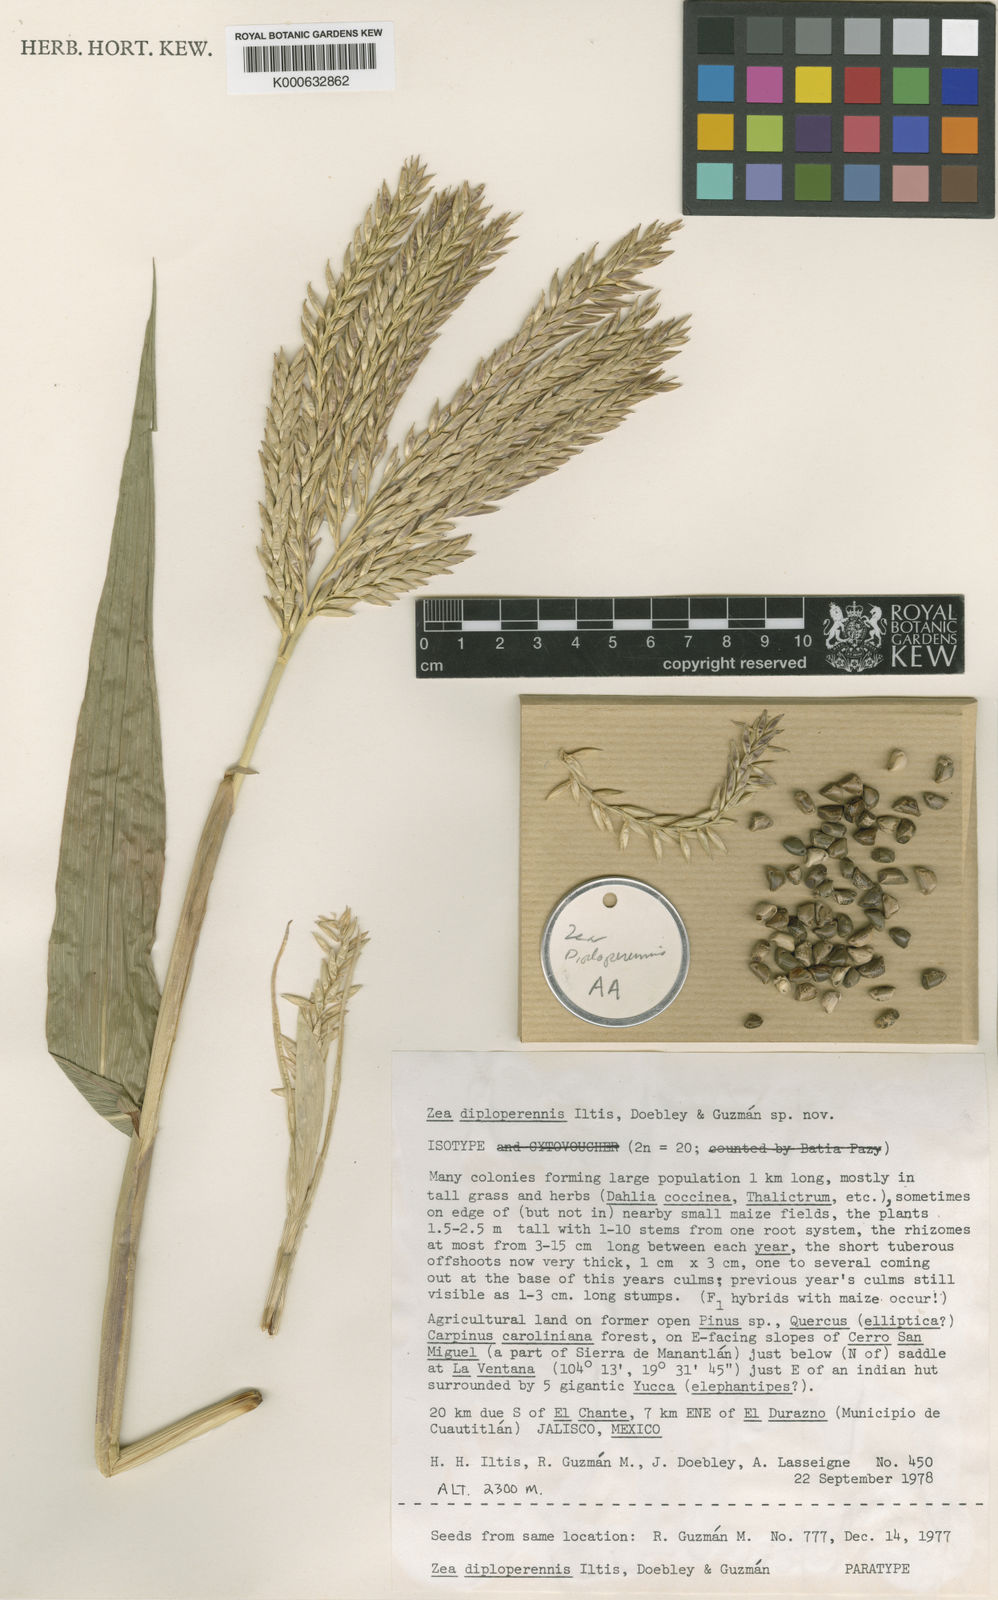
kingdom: Plantae
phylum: Tracheophyta
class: Liliopsida
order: Poales
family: Poaceae
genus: Zea
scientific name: Zea
